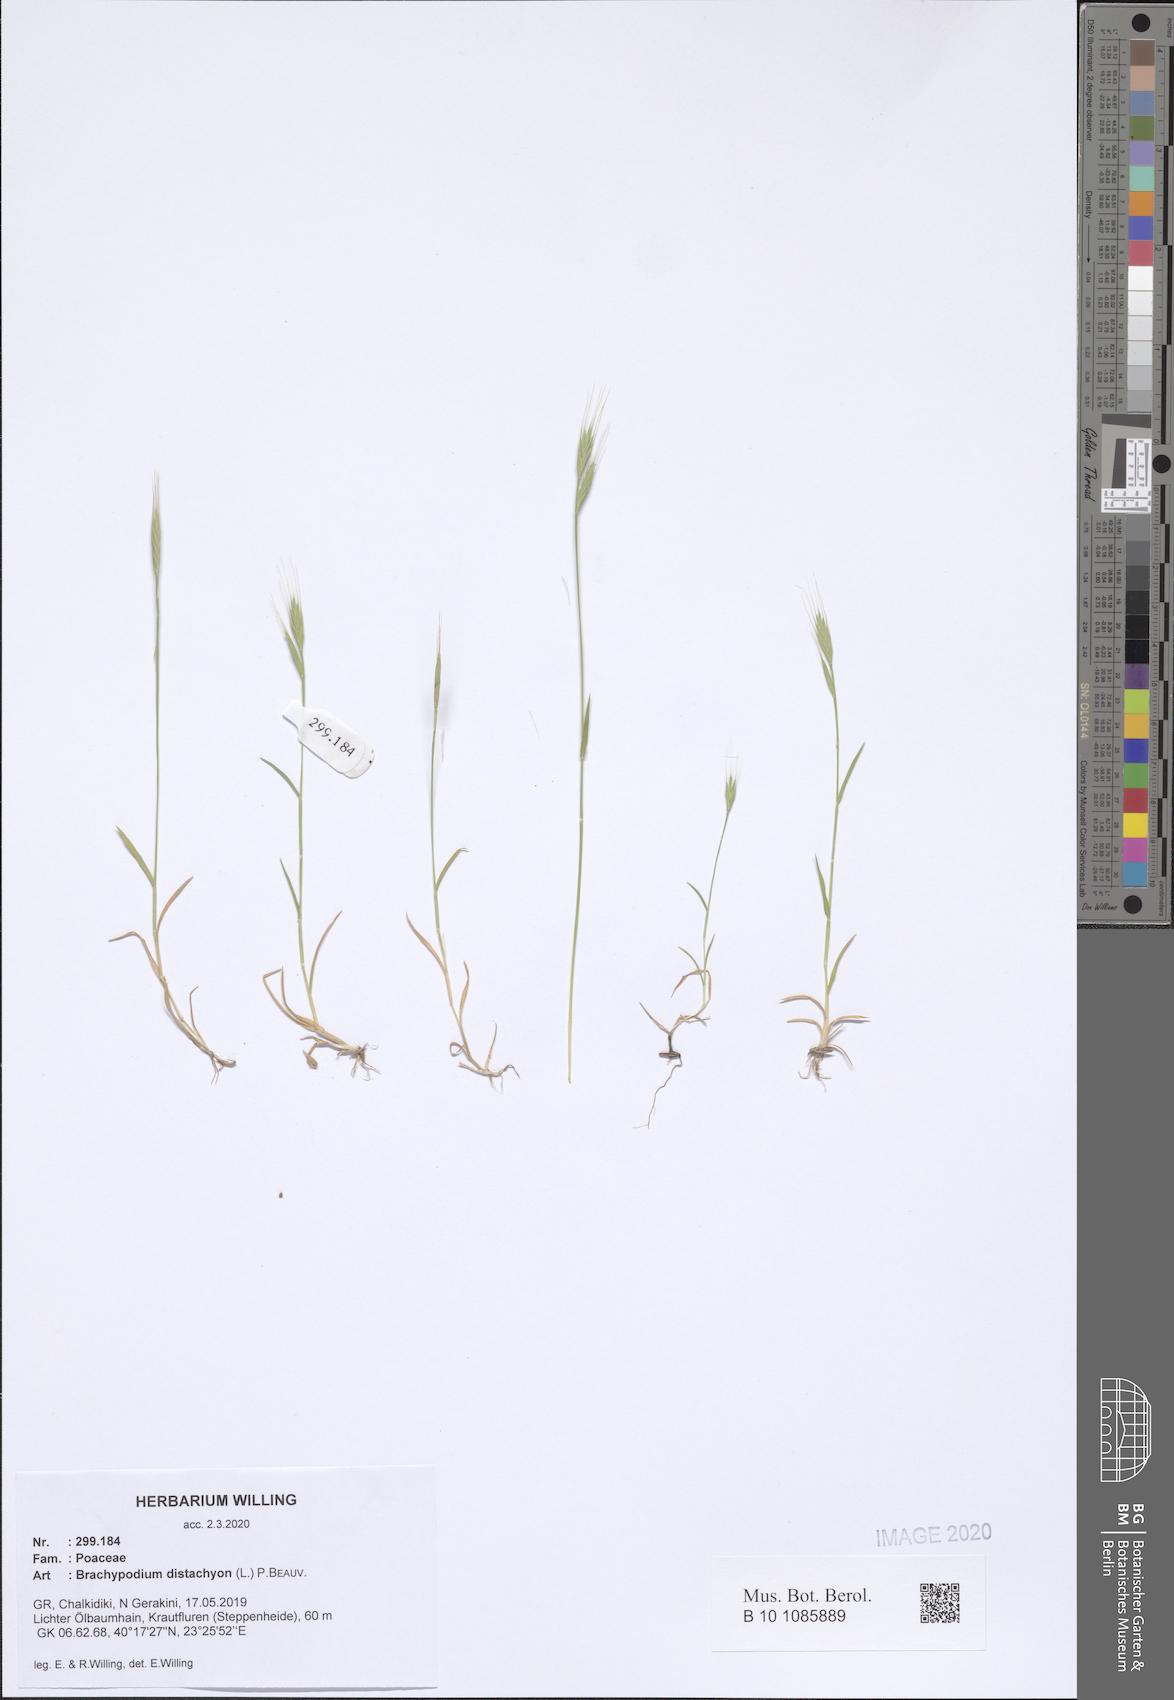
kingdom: Plantae
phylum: Tracheophyta
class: Liliopsida
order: Poales
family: Poaceae
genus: Brachypodium
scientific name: Brachypodium distachyon
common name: Stiff brome
